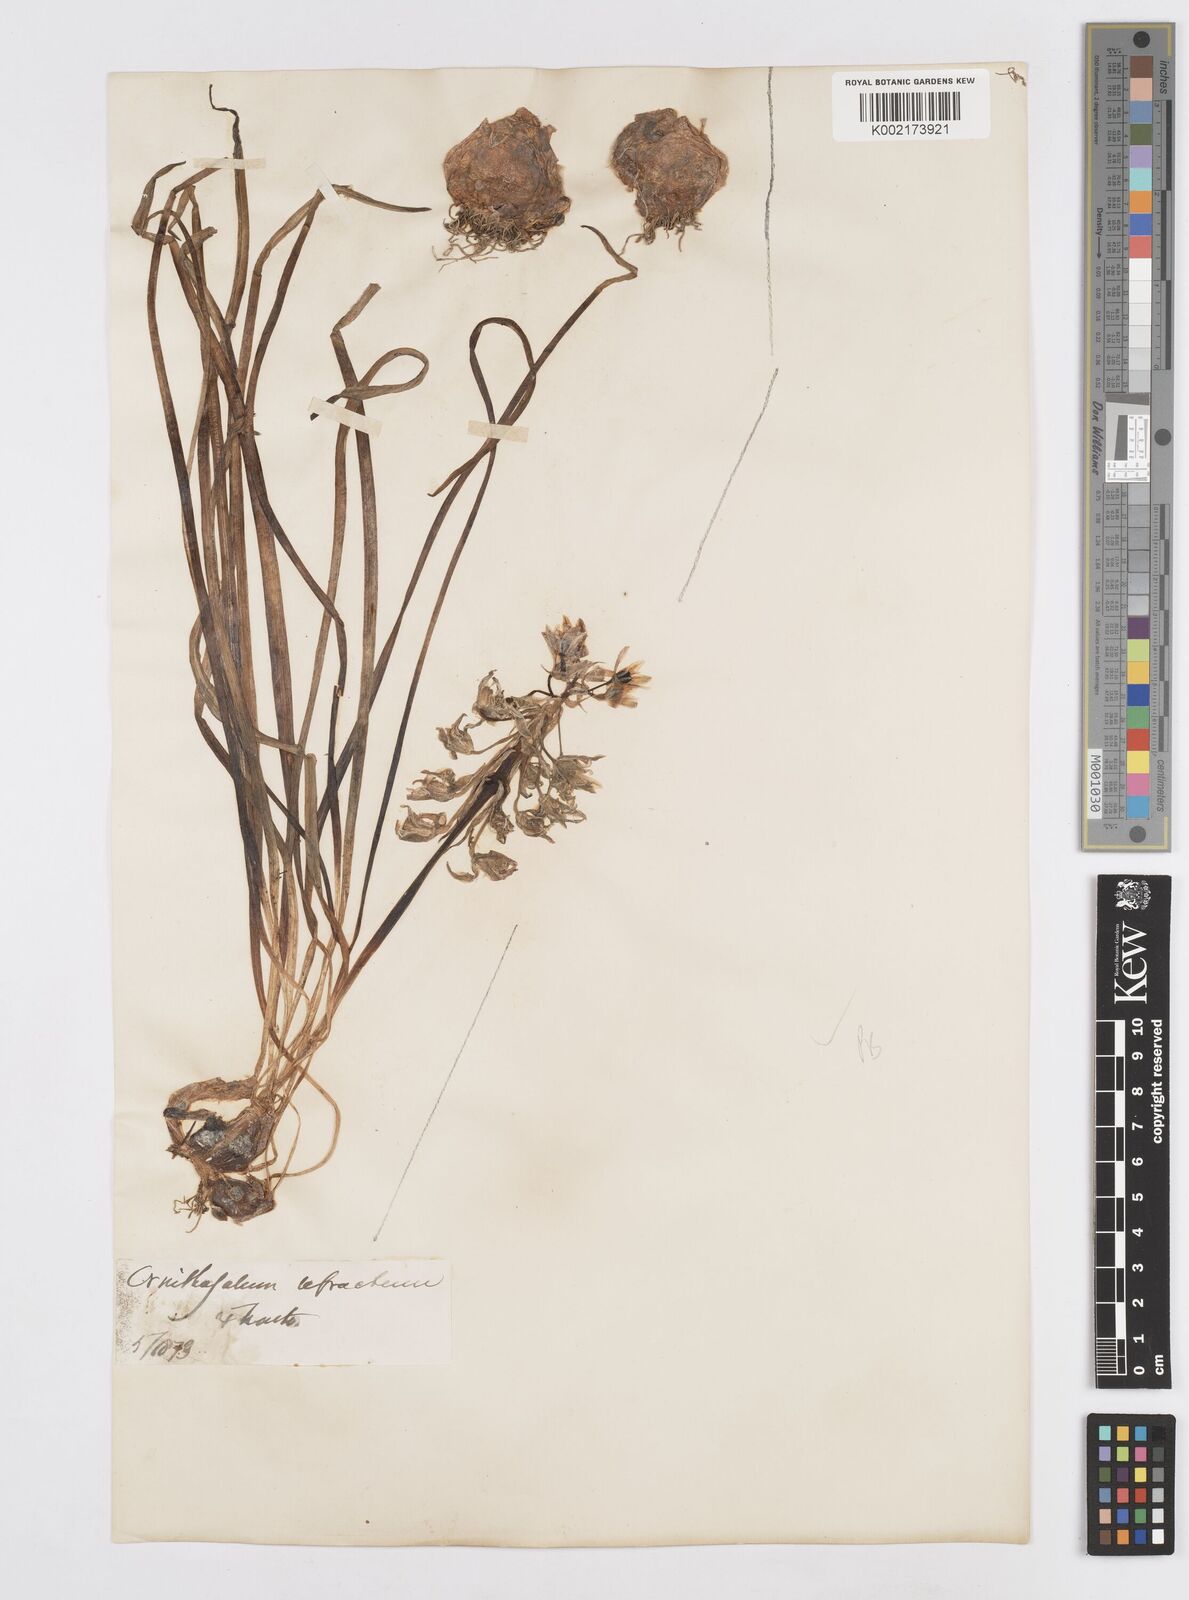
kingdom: Plantae
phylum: Tracheophyta
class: Liliopsida
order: Asparagales
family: Asparagaceae
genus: Ornithogalum
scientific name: Ornithogalum refractum
